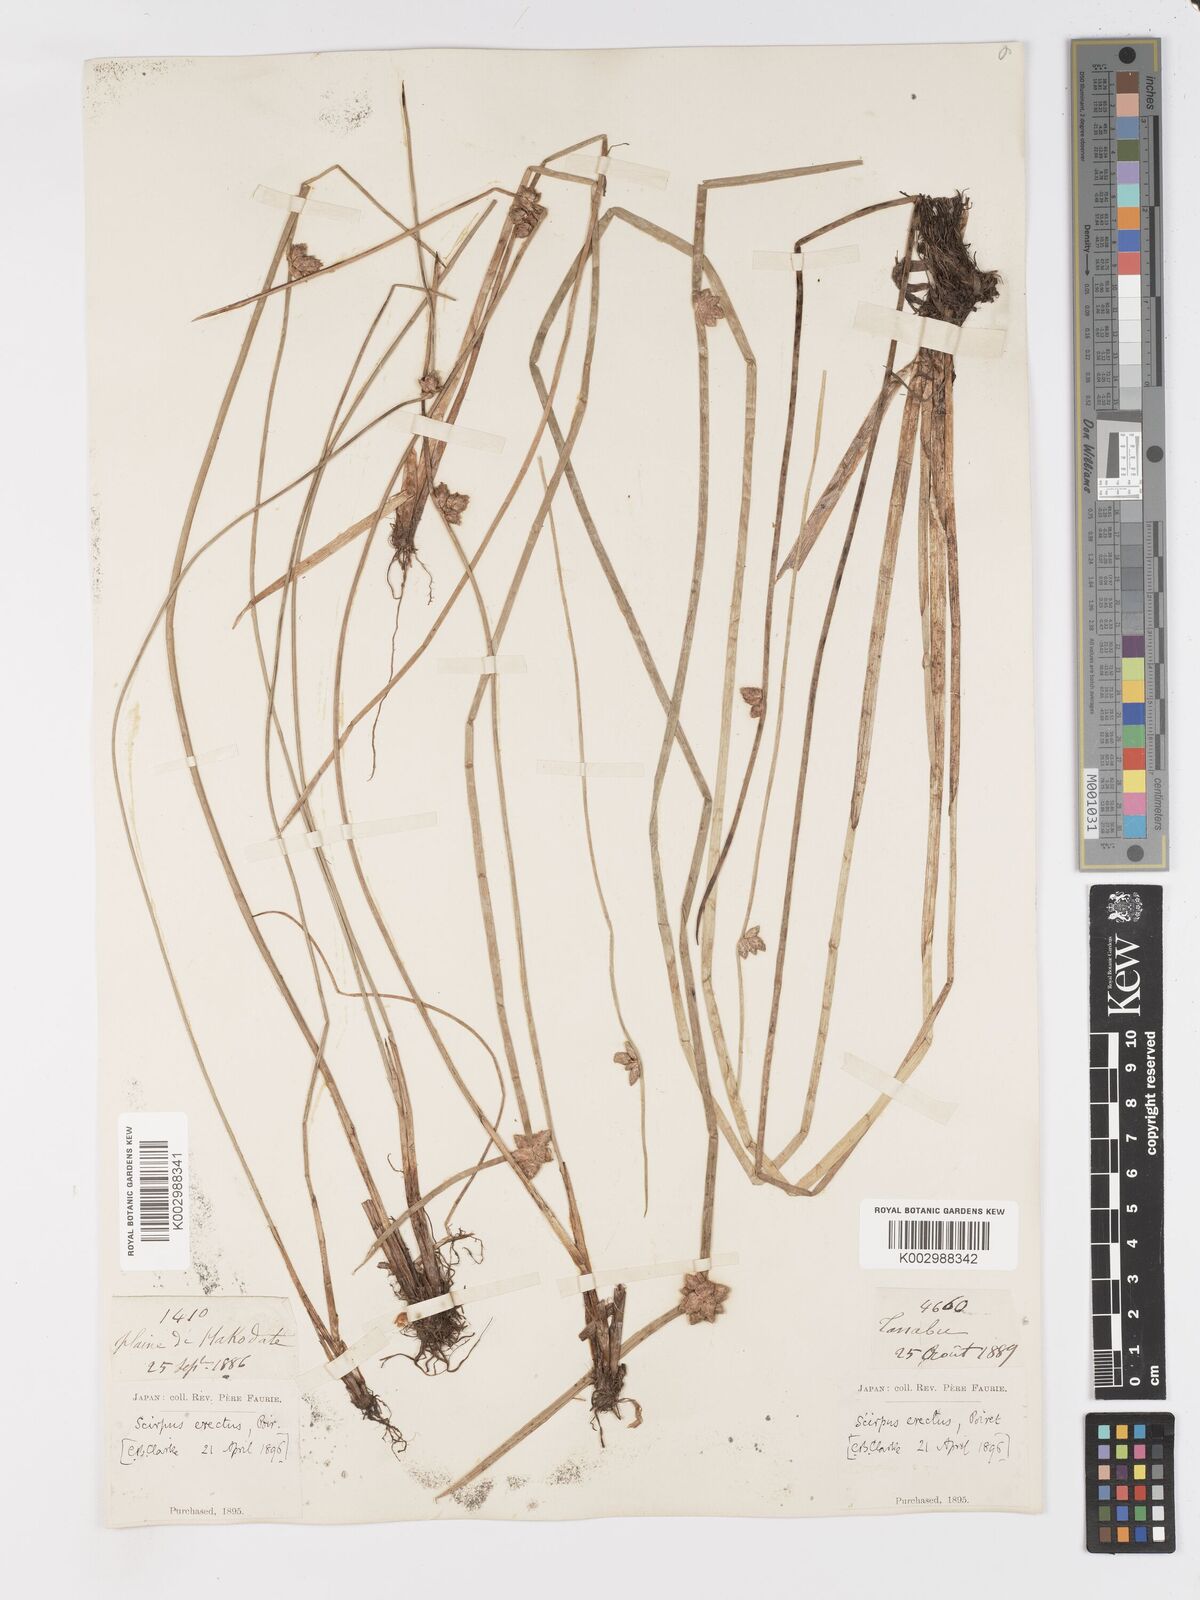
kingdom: Plantae
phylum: Tracheophyta
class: Liliopsida
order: Poales
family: Cyperaceae
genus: Schoenoplectiella
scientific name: Schoenoplectiella juncoides
